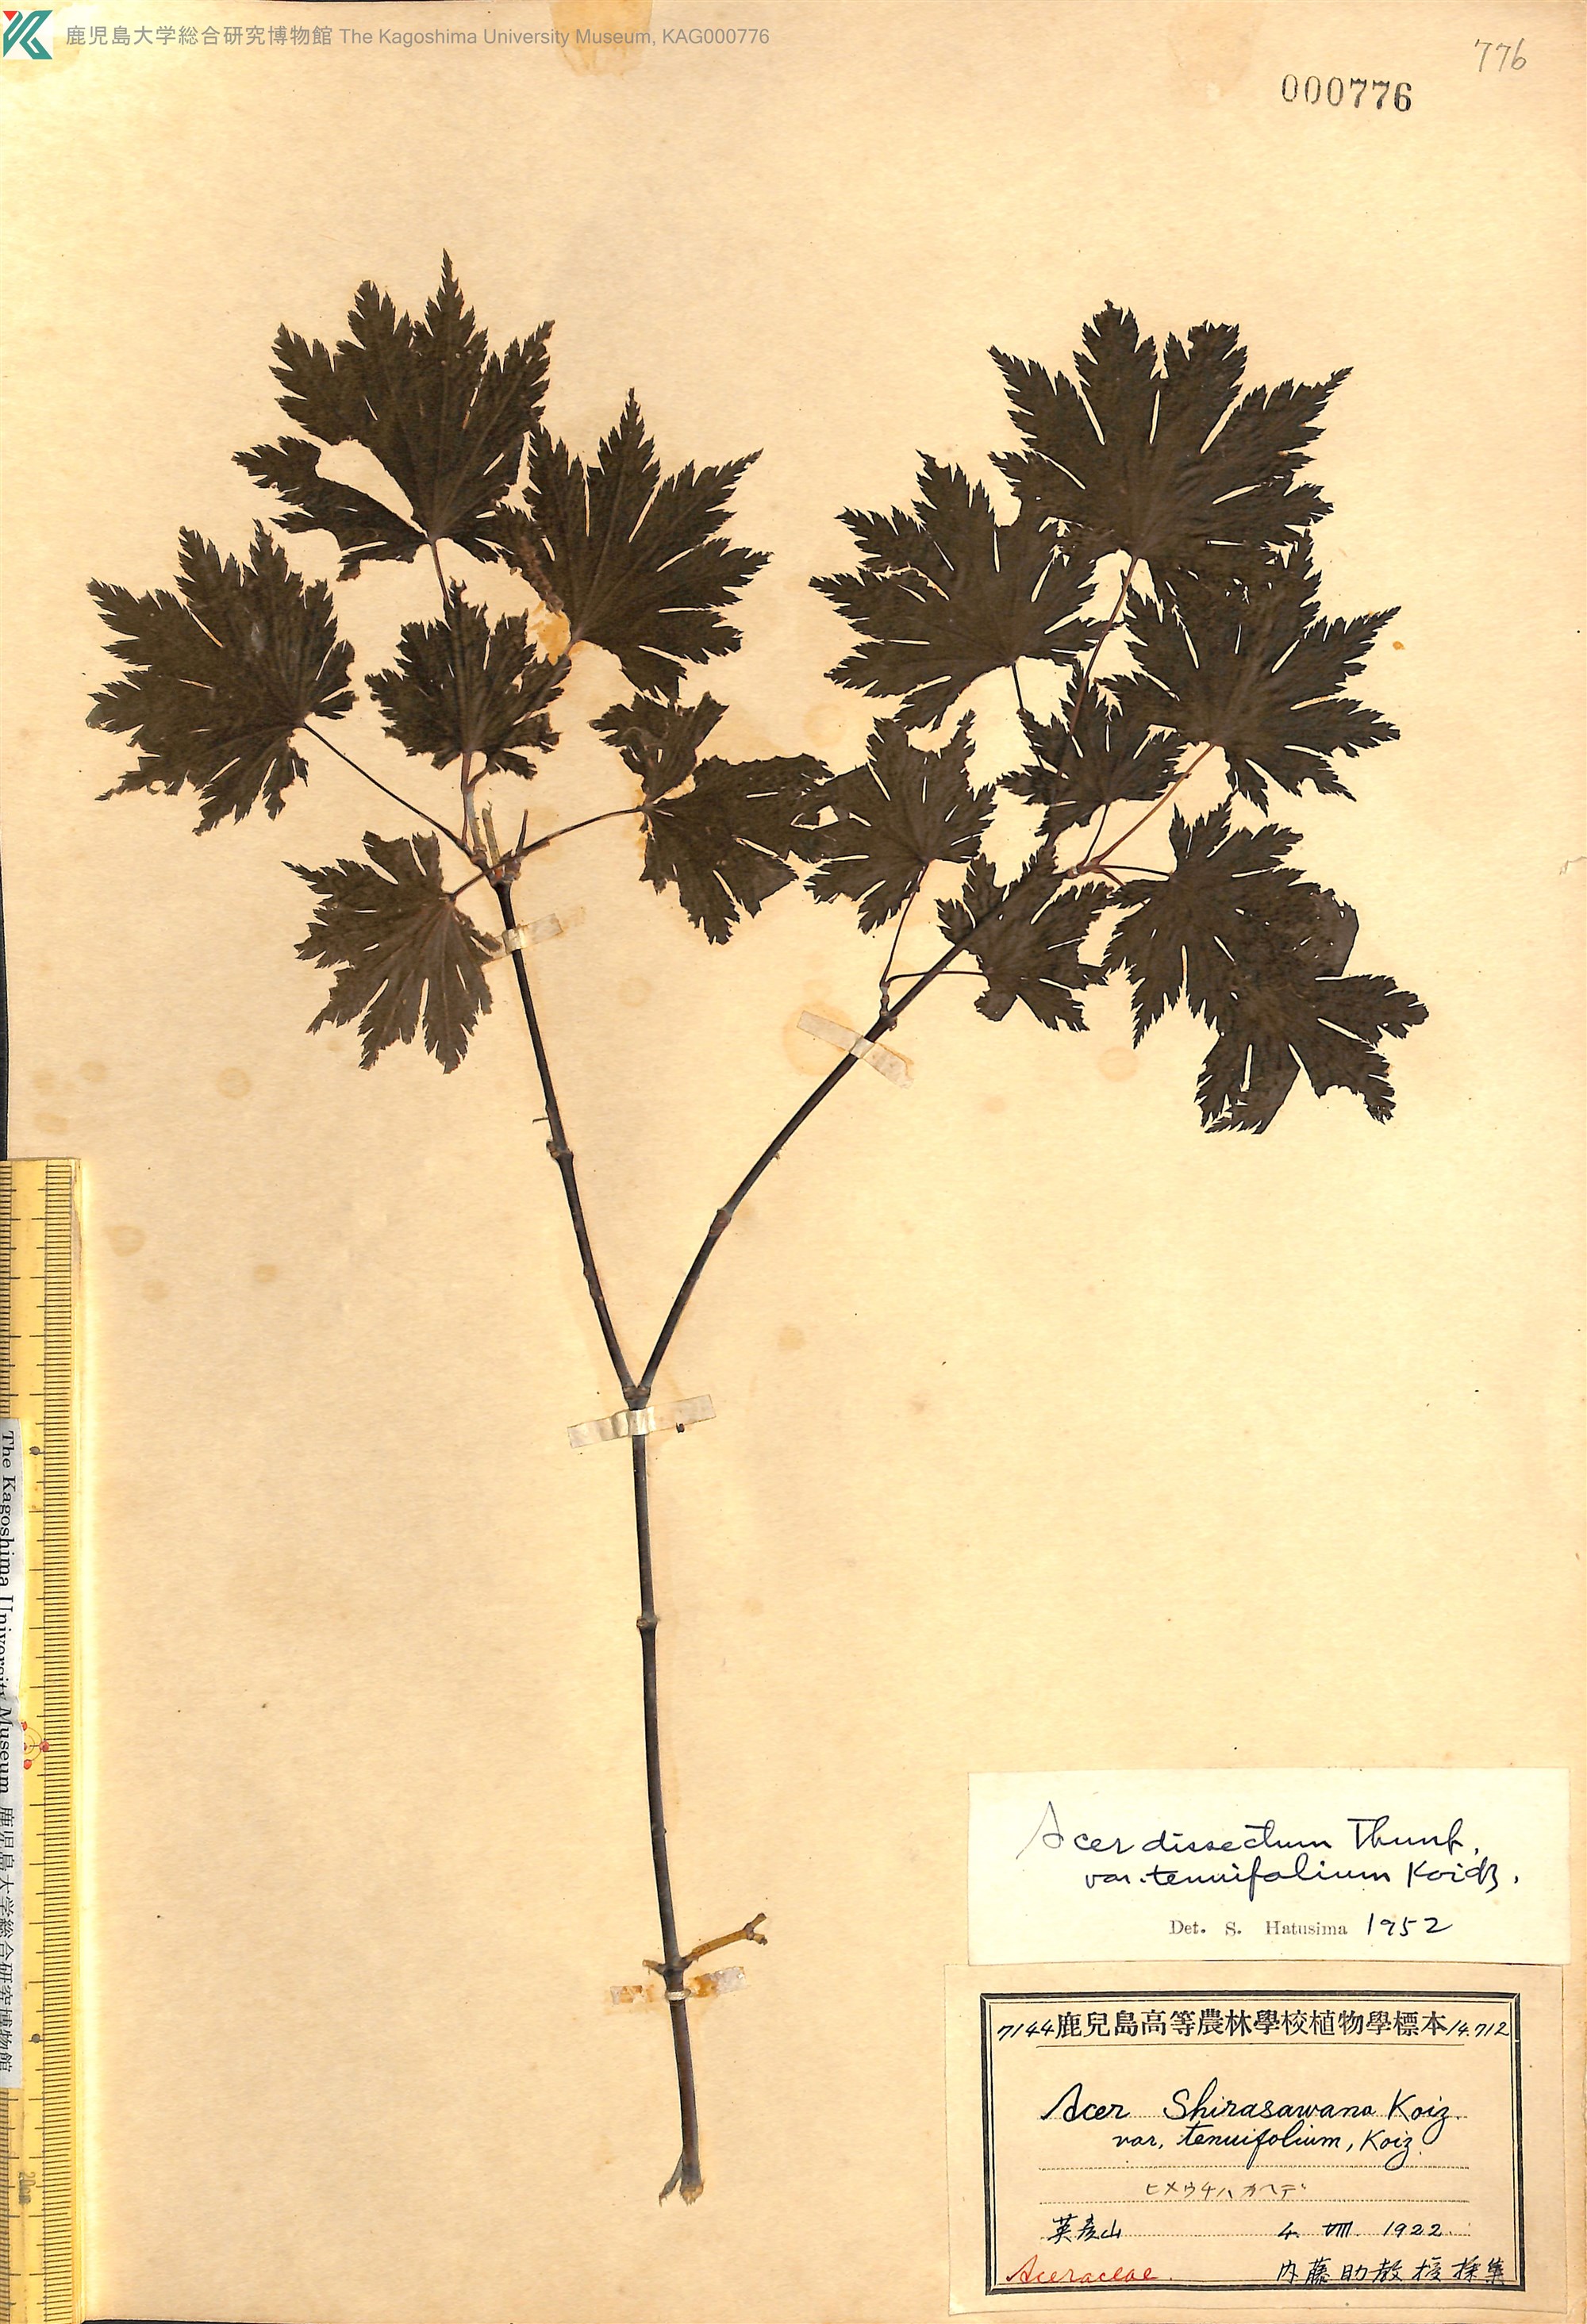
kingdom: Plantae
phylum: Tracheophyta
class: Magnoliopsida
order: Sapindales
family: Sapindaceae
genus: Acer
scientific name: Acer shirasawanum
